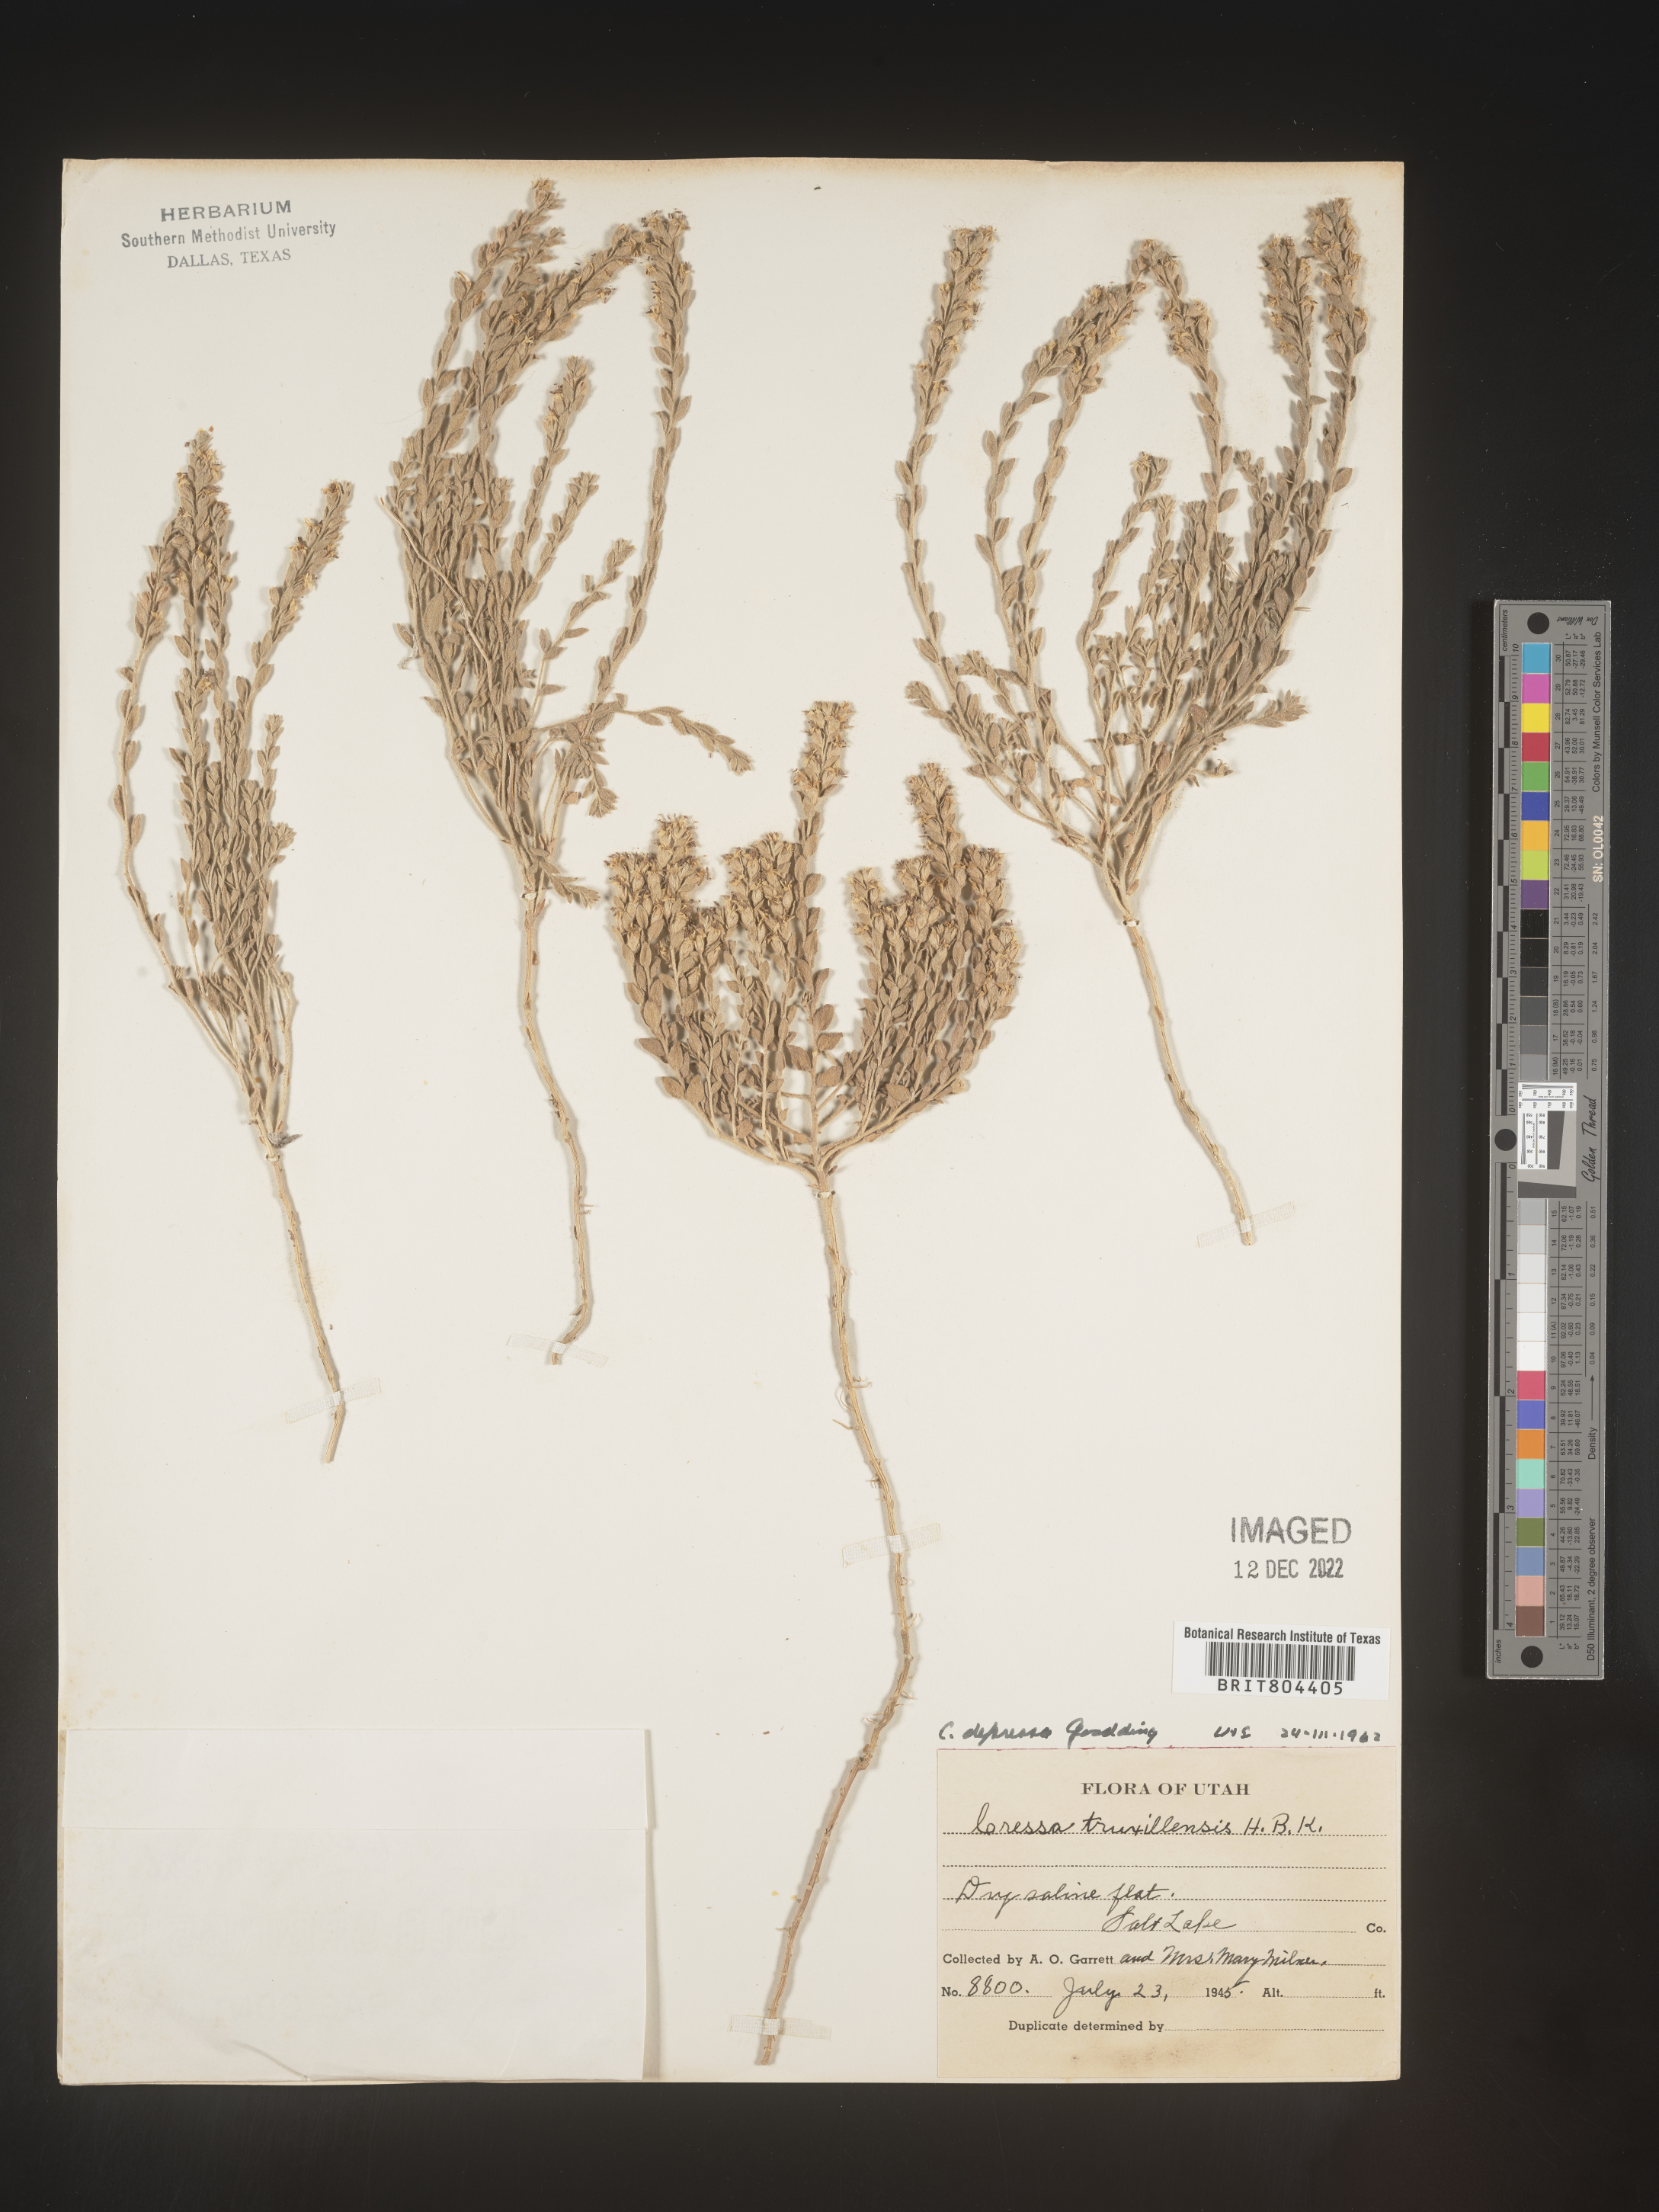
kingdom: Plantae
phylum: Tracheophyta
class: Magnoliopsida
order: Solanales
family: Convolvulaceae
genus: Cressa
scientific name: Cressa
